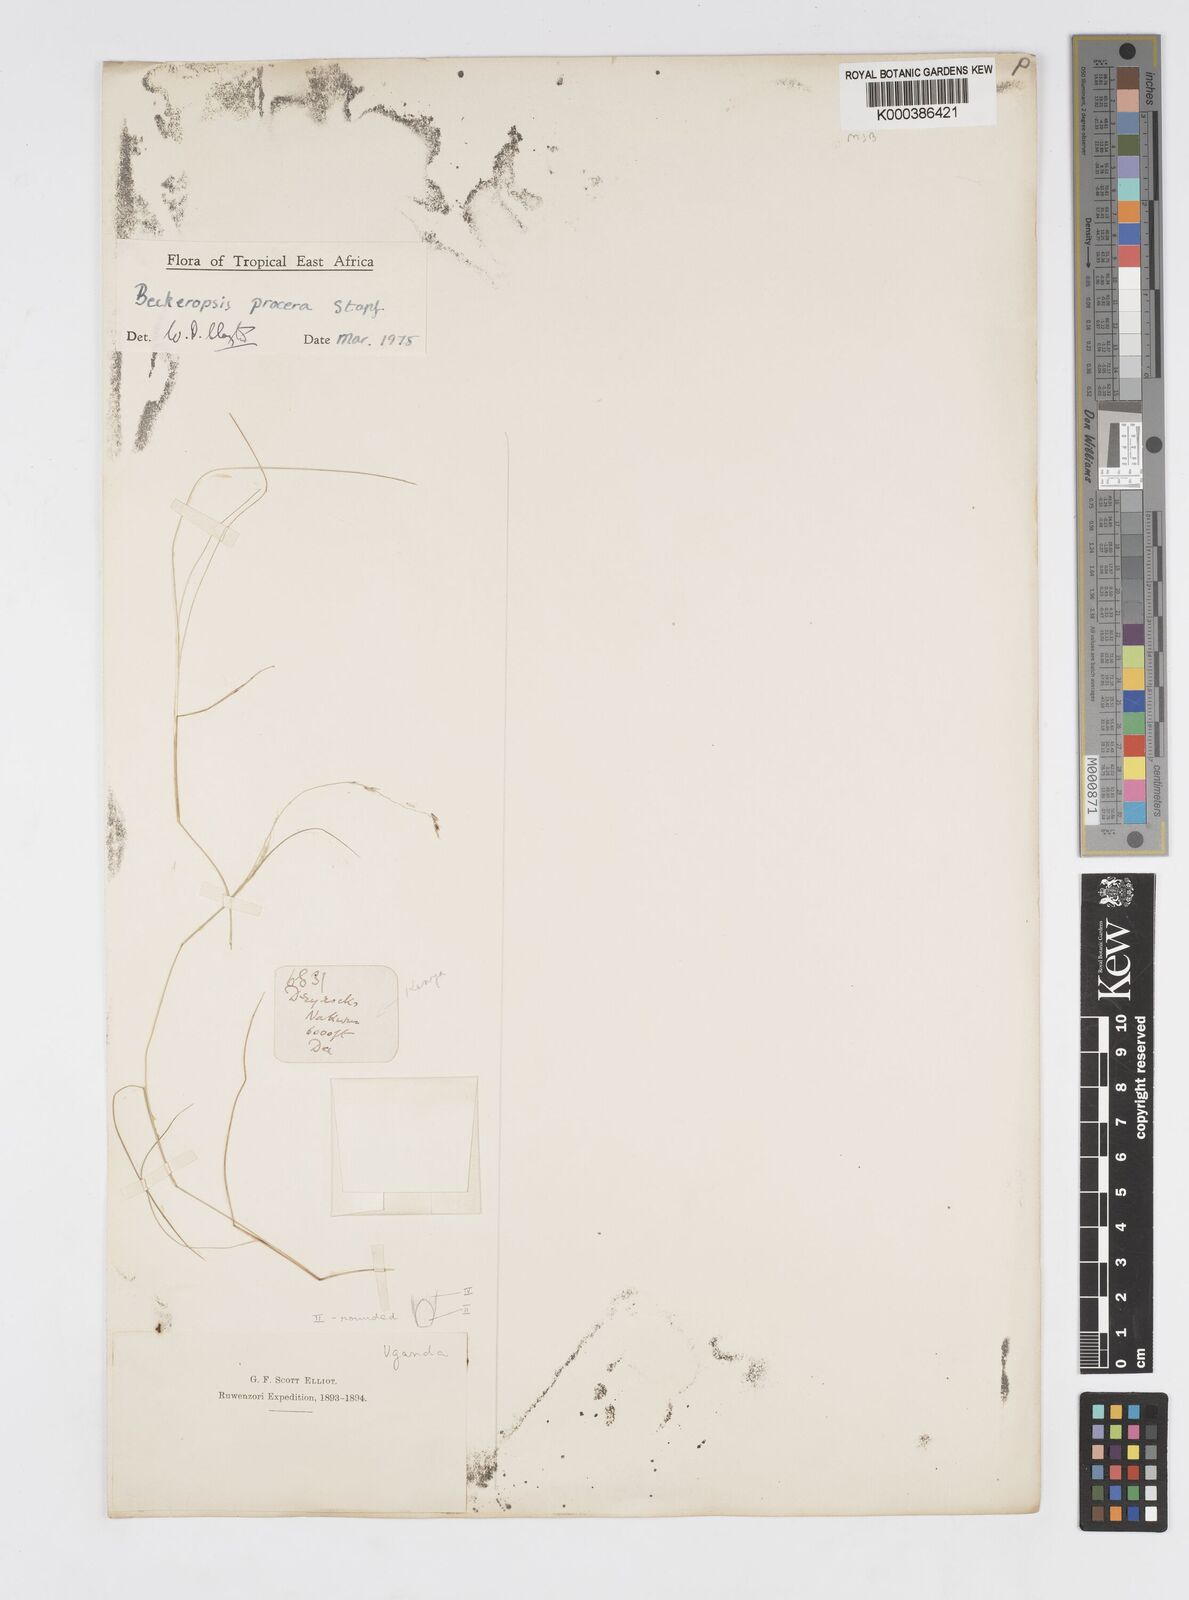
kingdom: Plantae
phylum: Tracheophyta
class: Liliopsida
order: Poales
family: Poaceae
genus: Cenchrus
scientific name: Cenchrus procerus
